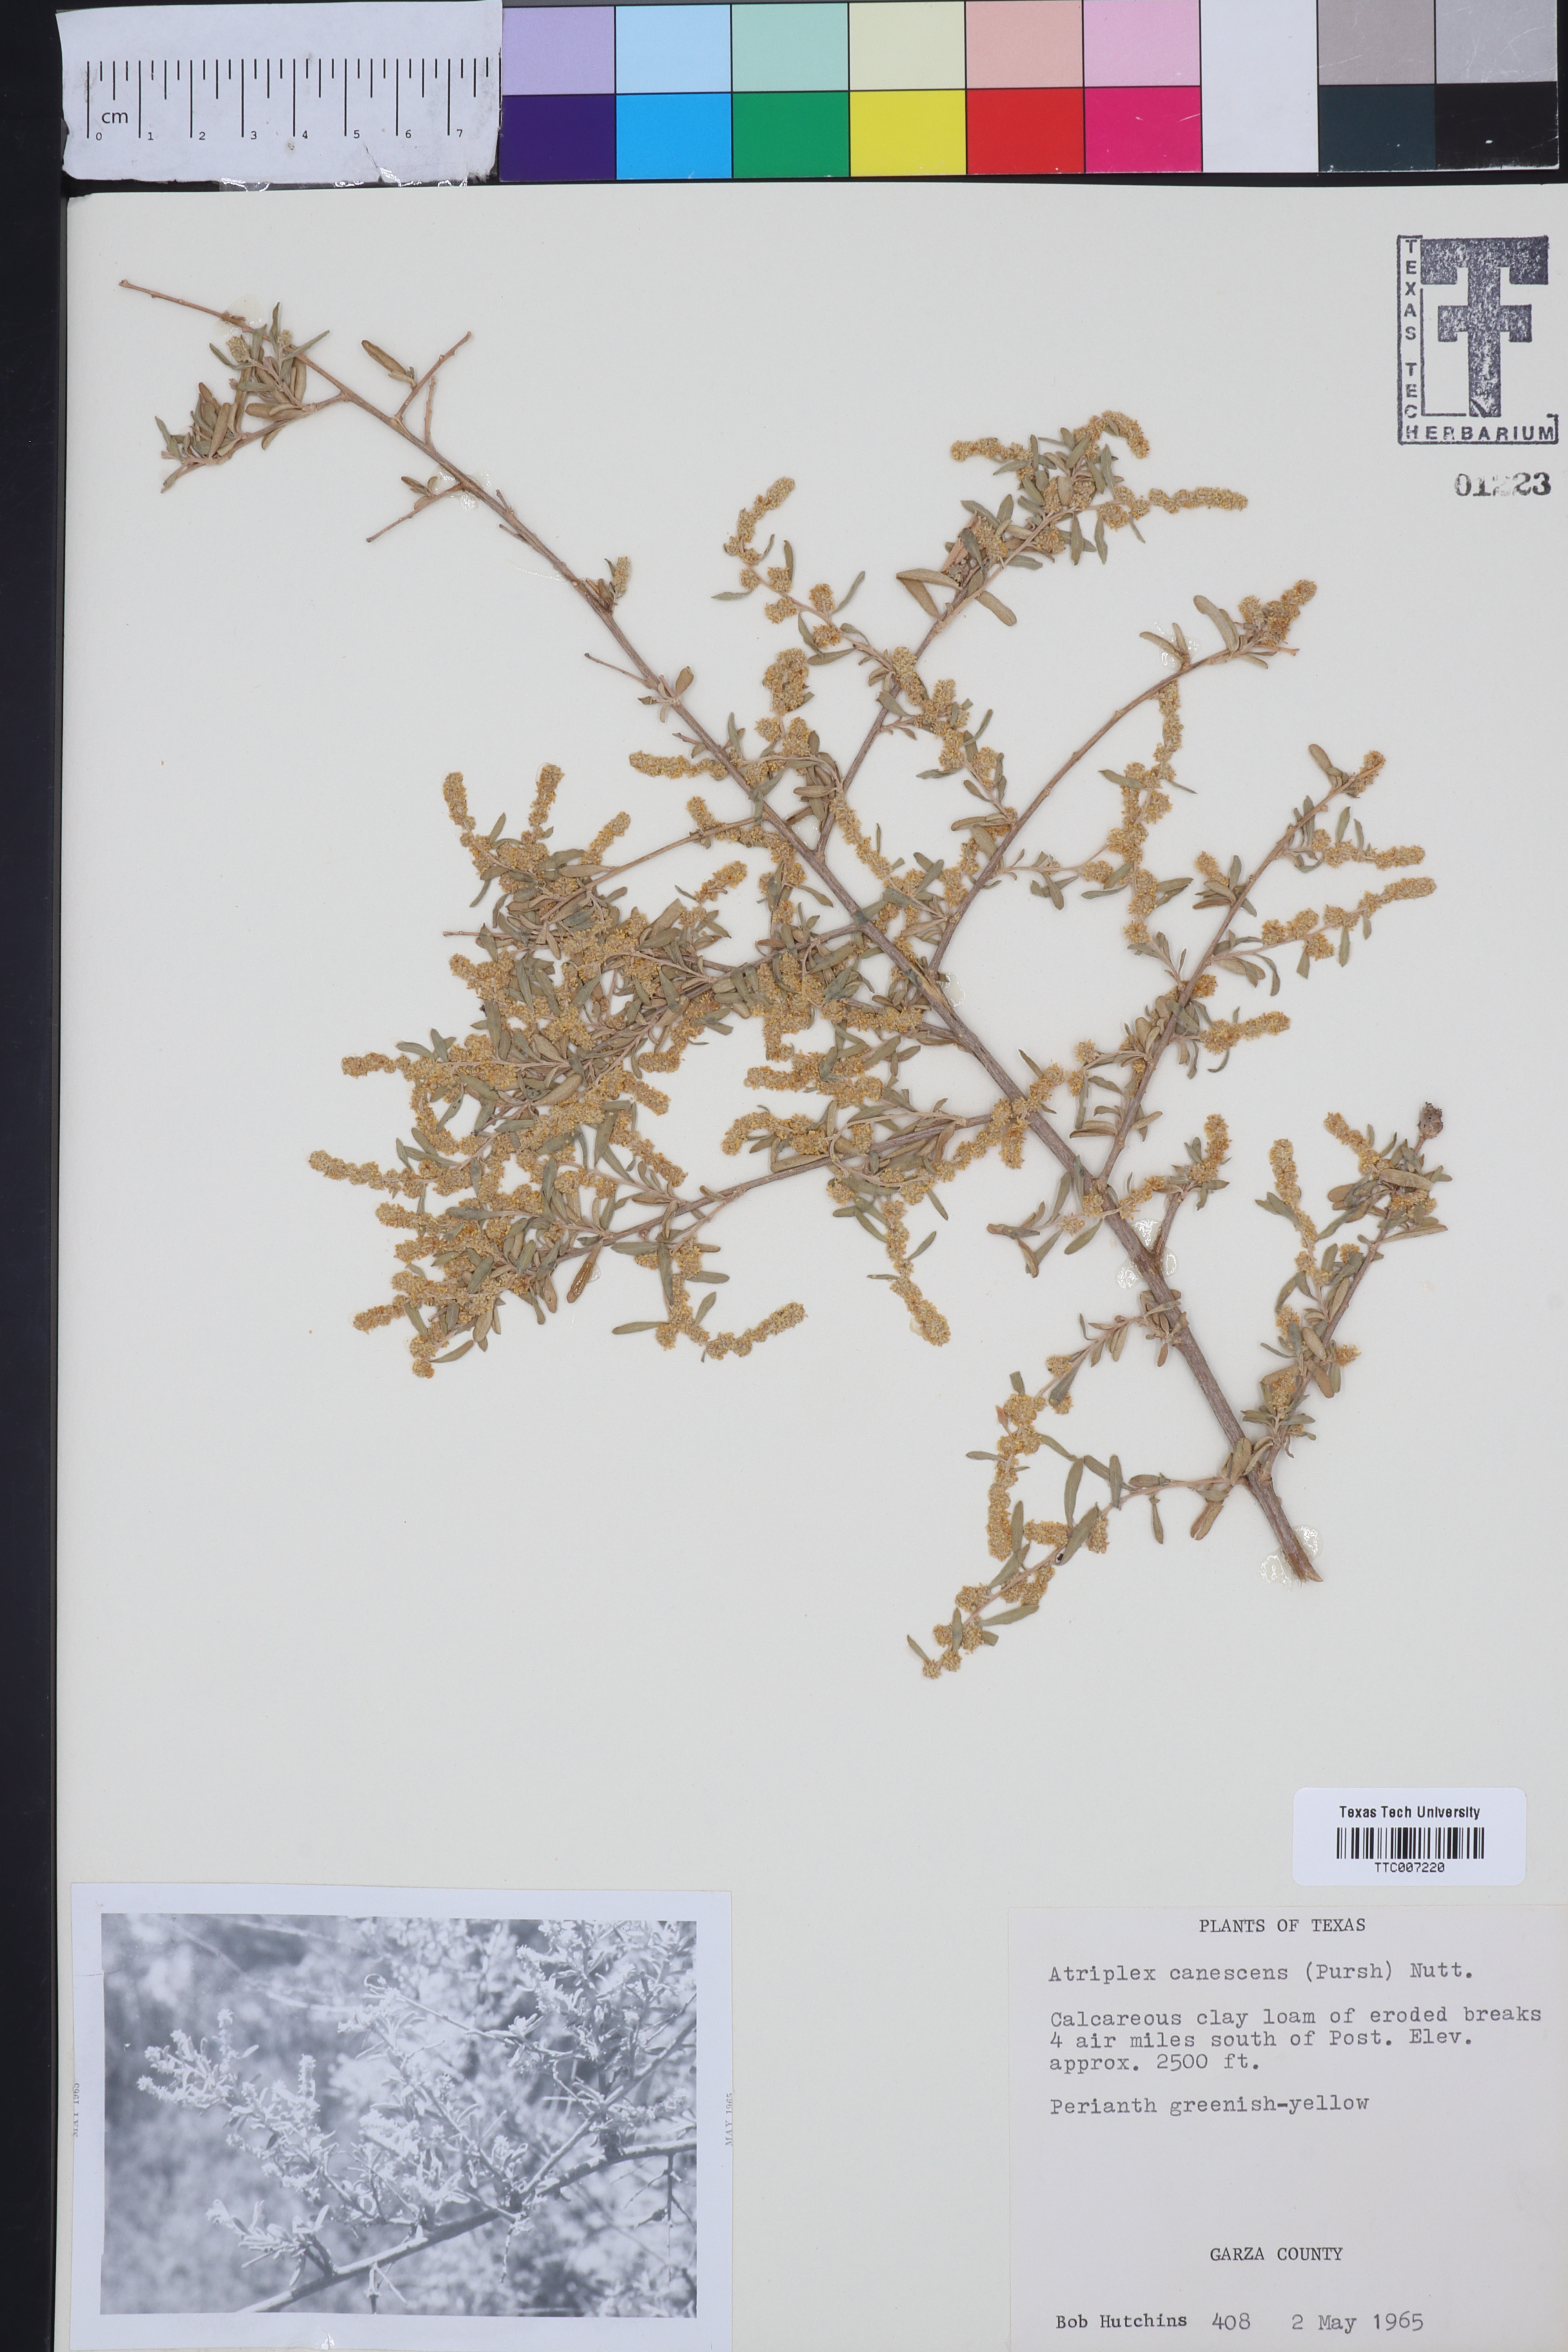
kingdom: Plantae
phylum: Tracheophyta
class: Magnoliopsida
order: Caryophyllales
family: Amaranthaceae
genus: Atriplex
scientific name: Atriplex canescens
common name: Four-wing saltbush
